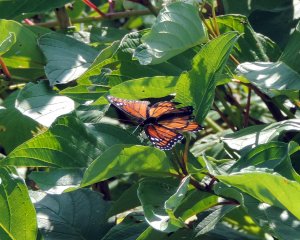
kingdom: Animalia
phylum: Arthropoda
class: Insecta
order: Lepidoptera
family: Nymphalidae
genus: Limenitis
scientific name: Limenitis archippus
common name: Viceroy
